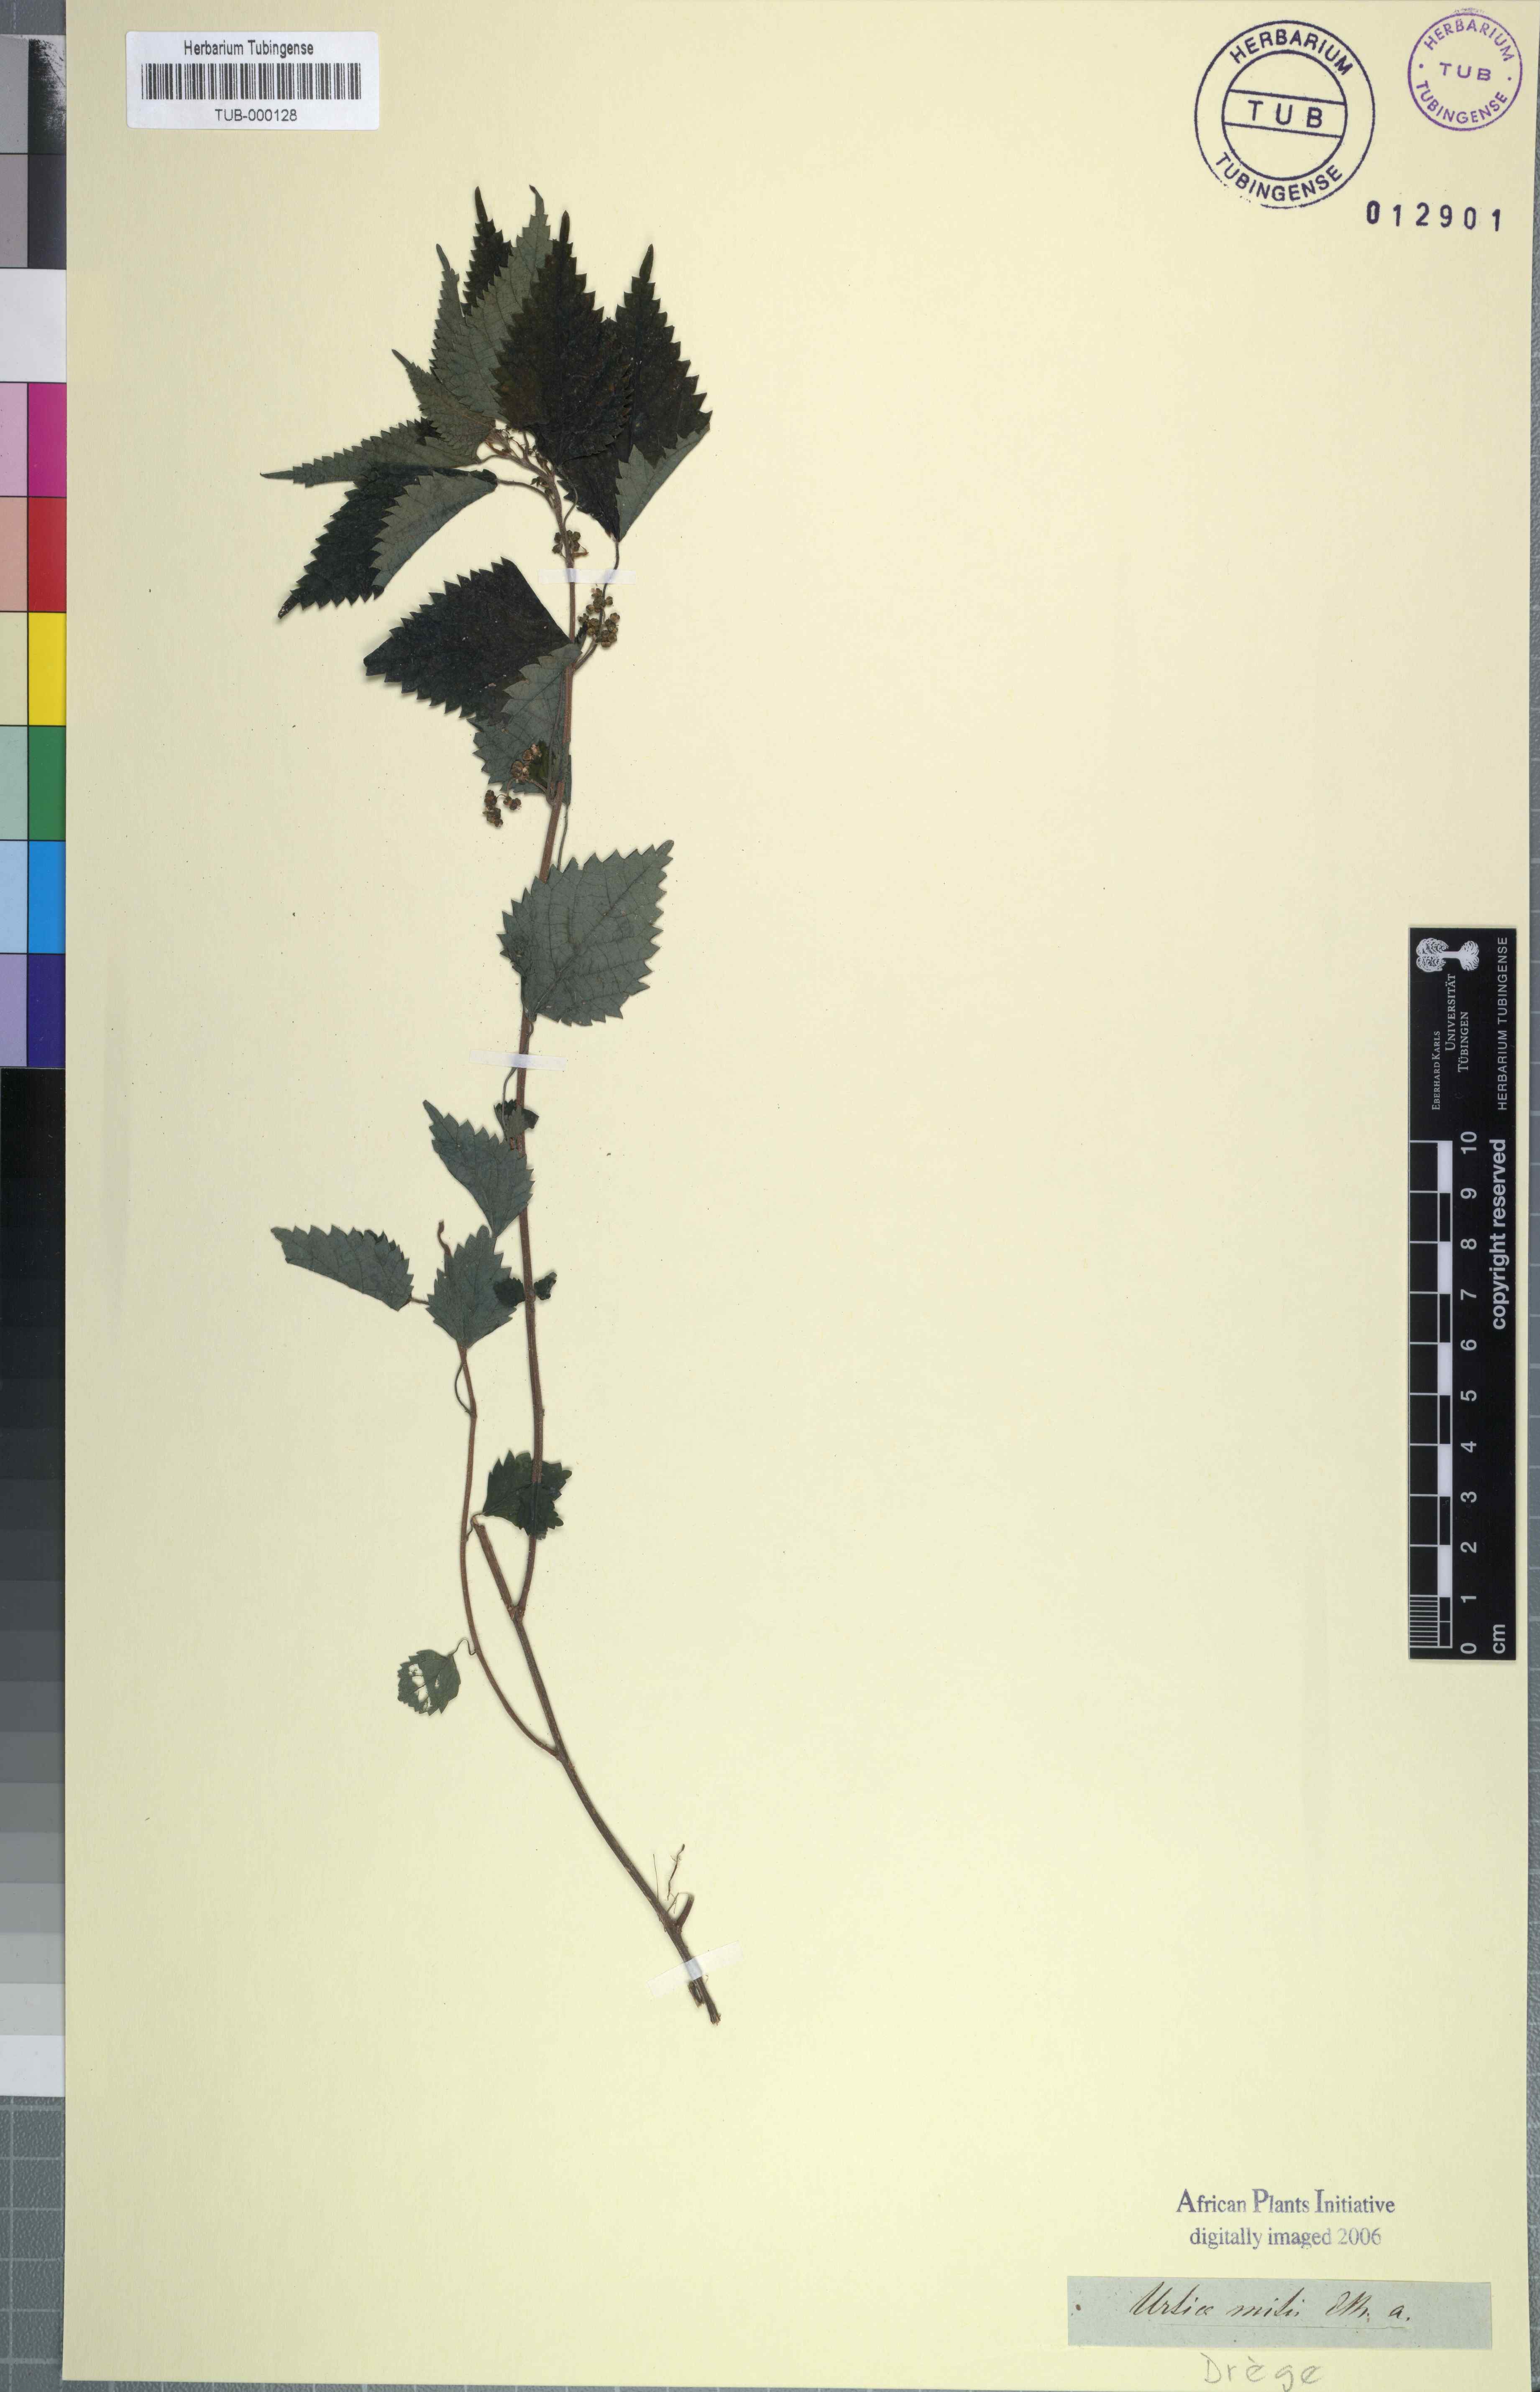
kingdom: Plantae
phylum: Tracheophyta
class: Magnoliopsida
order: Rosales
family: Urticaceae
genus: Didymodoxa
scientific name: Didymodoxa capensis
